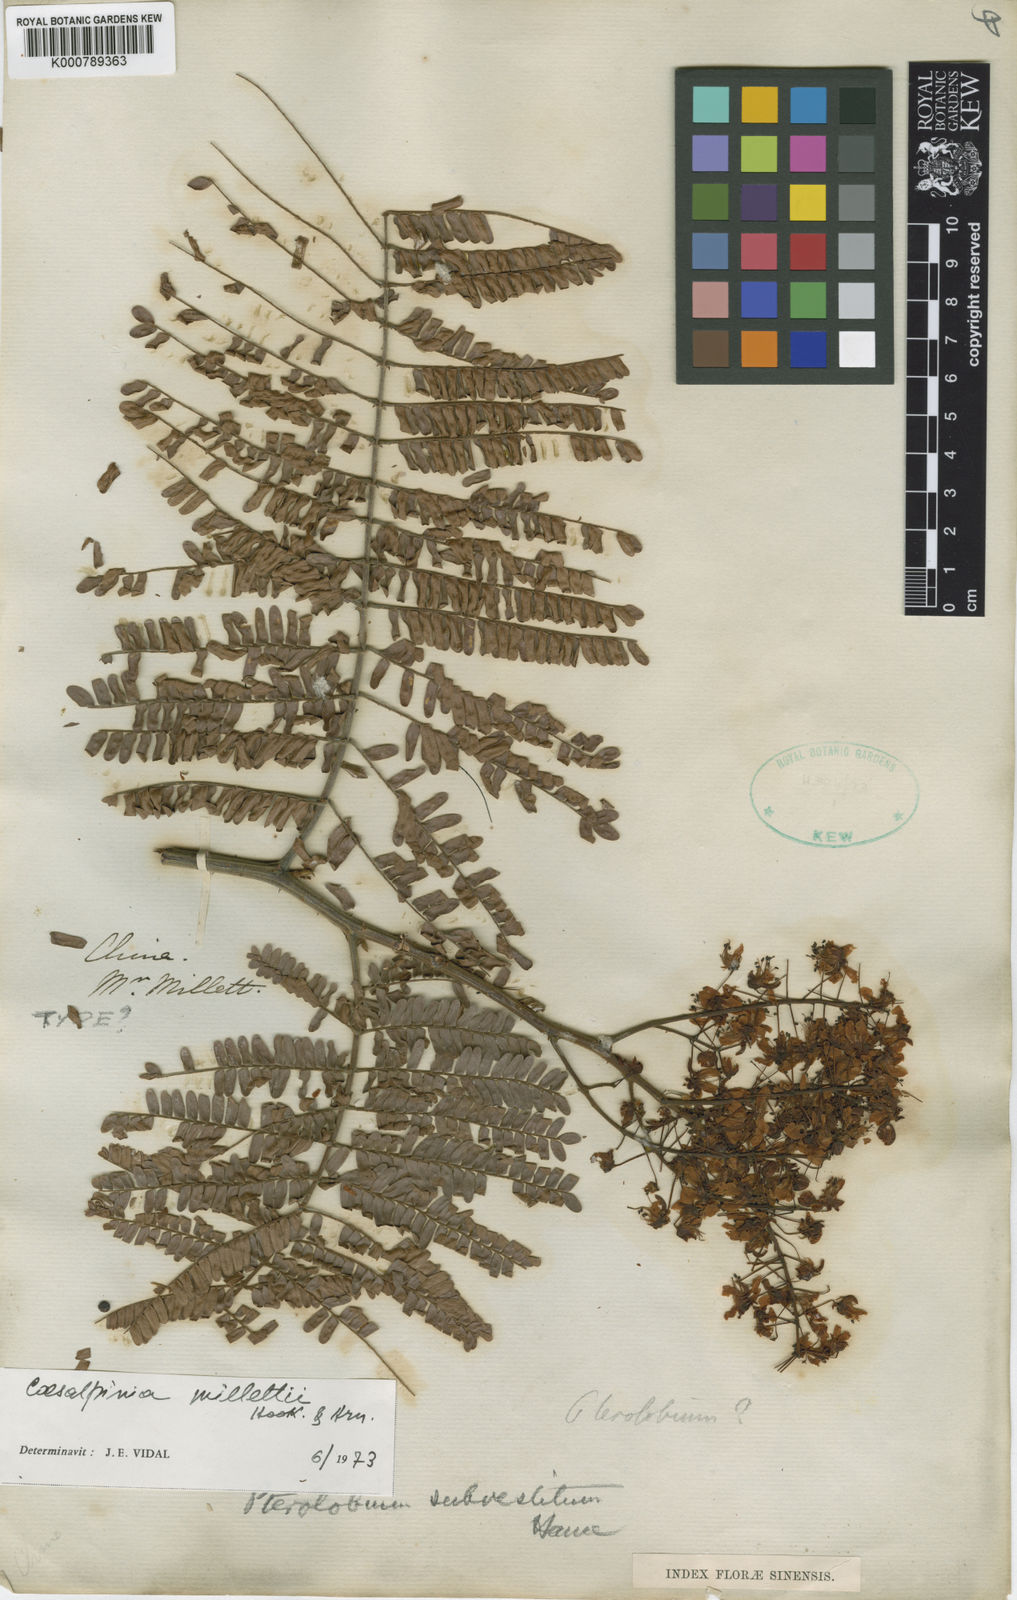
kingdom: Plantae
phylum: Tracheophyta
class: Magnoliopsida
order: Fabales
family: Fabaceae
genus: Biancaea
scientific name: Biancaea millettii
